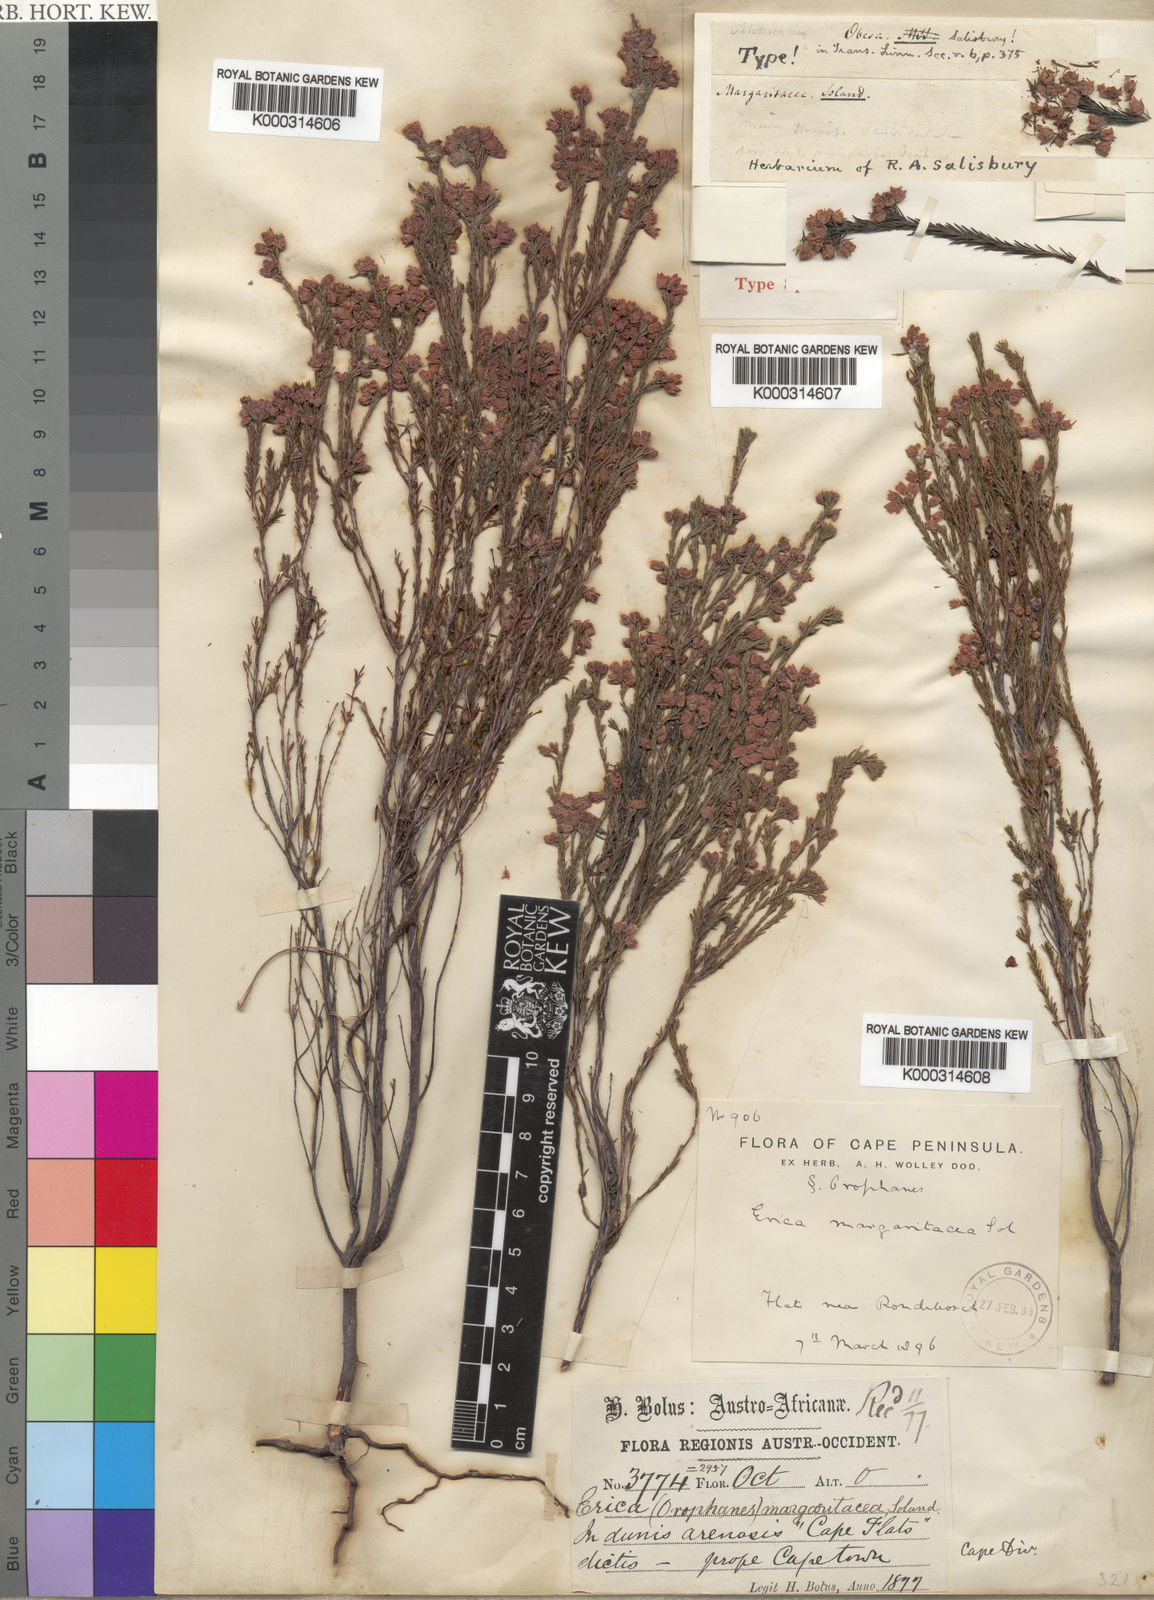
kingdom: Plantae
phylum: Tracheophyta
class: Magnoliopsida
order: Ericales
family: Ericaceae
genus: Erica
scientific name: Erica
